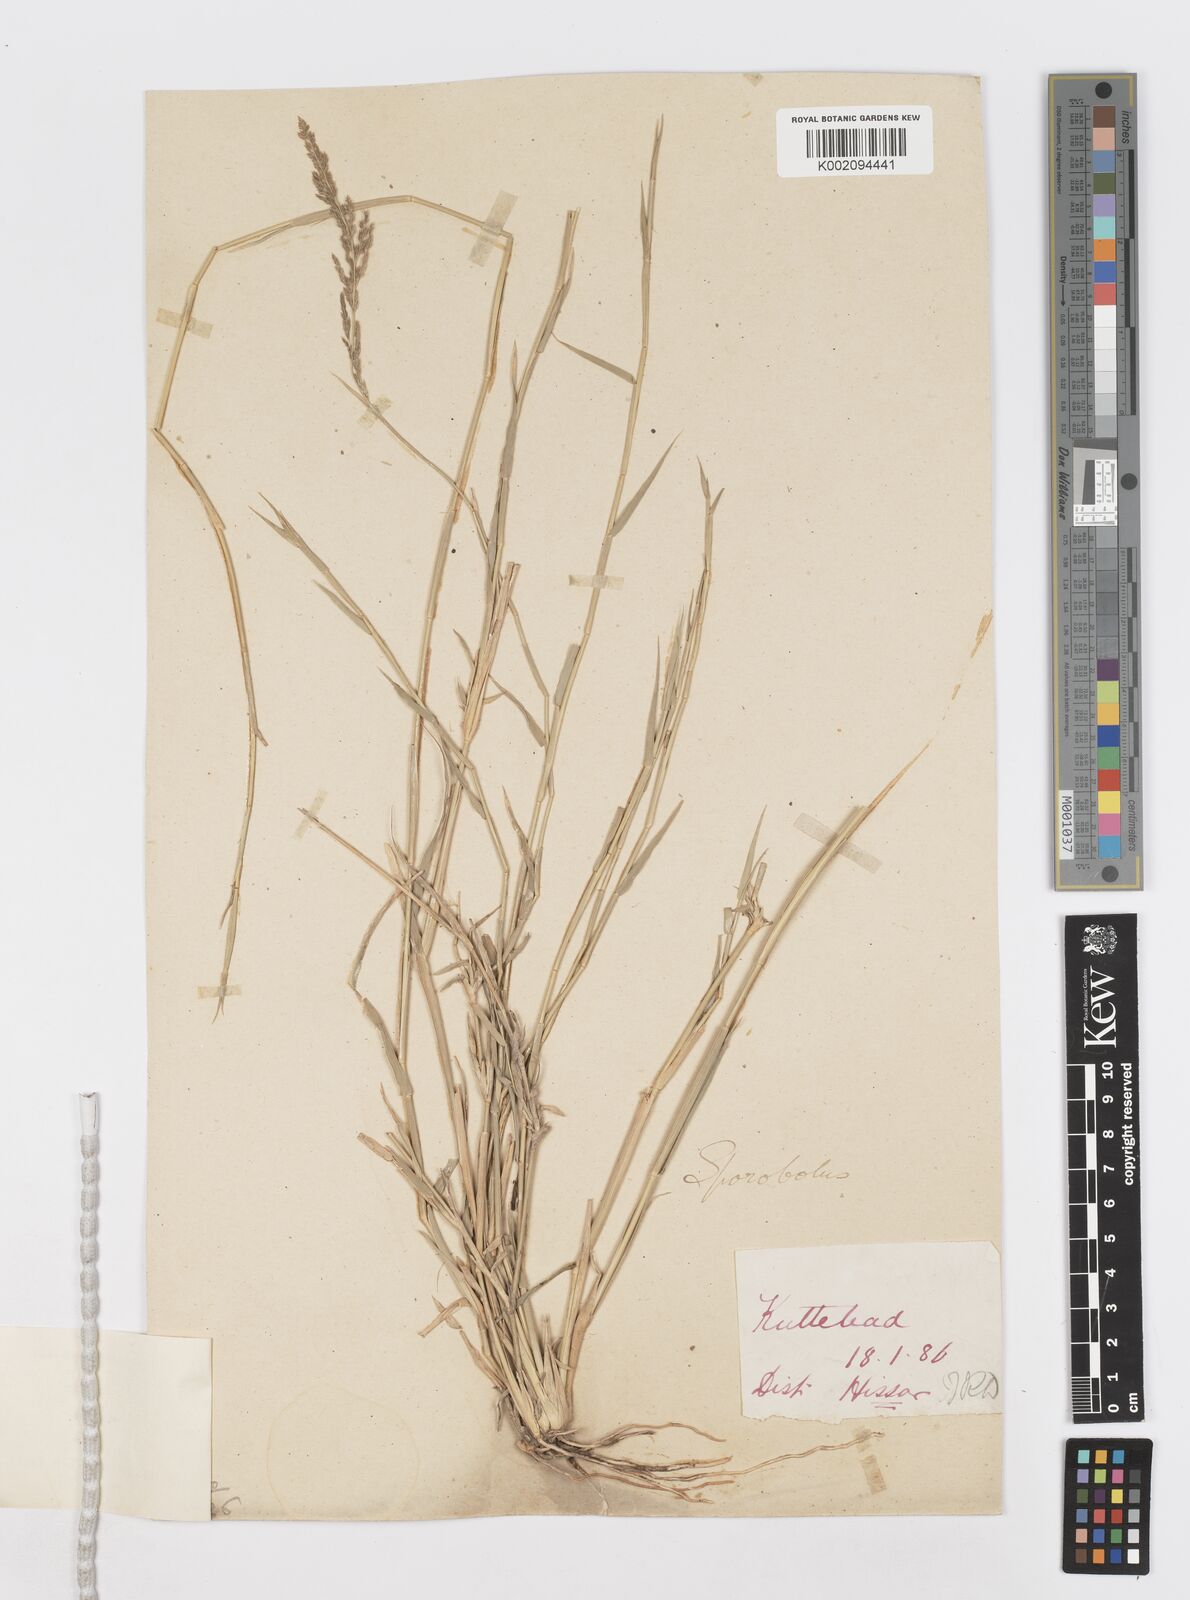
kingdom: Plantae
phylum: Tracheophyta
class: Liliopsida
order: Poales
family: Poaceae
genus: Sporobolus
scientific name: Sporobolus helvolus
